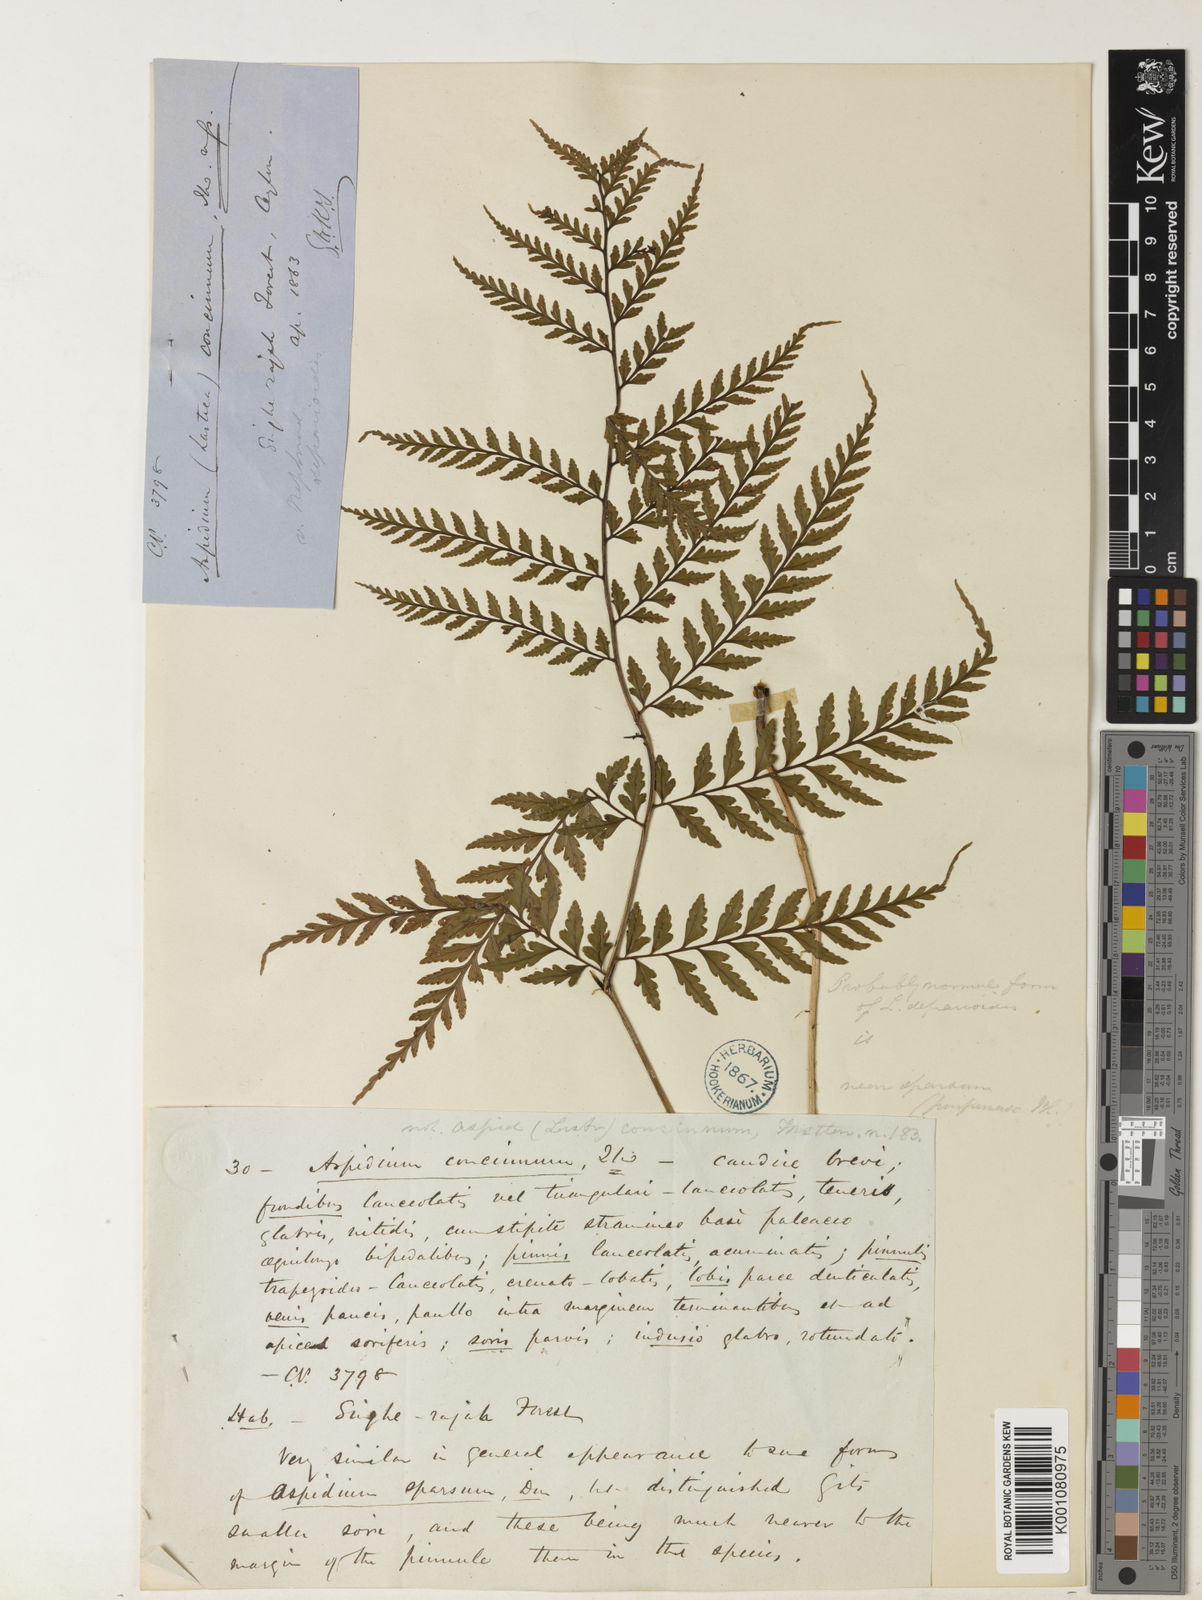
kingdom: Plantae
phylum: Tracheophyta
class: Polypodiopsida
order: Polypodiales
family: Dryopteridaceae
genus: Dryopteris
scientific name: Dryopteris
